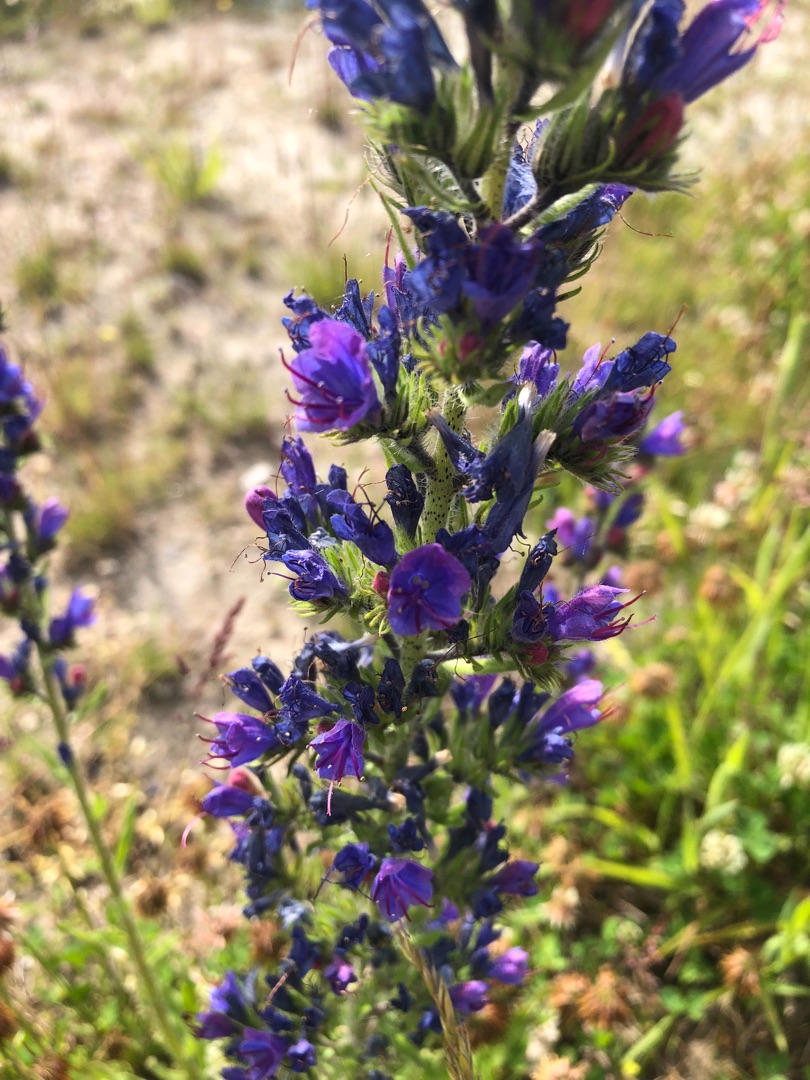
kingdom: Plantae
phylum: Tracheophyta
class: Magnoliopsida
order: Boraginales
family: Boraginaceae
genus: Echium
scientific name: Echium vulgare
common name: Slangehoved
